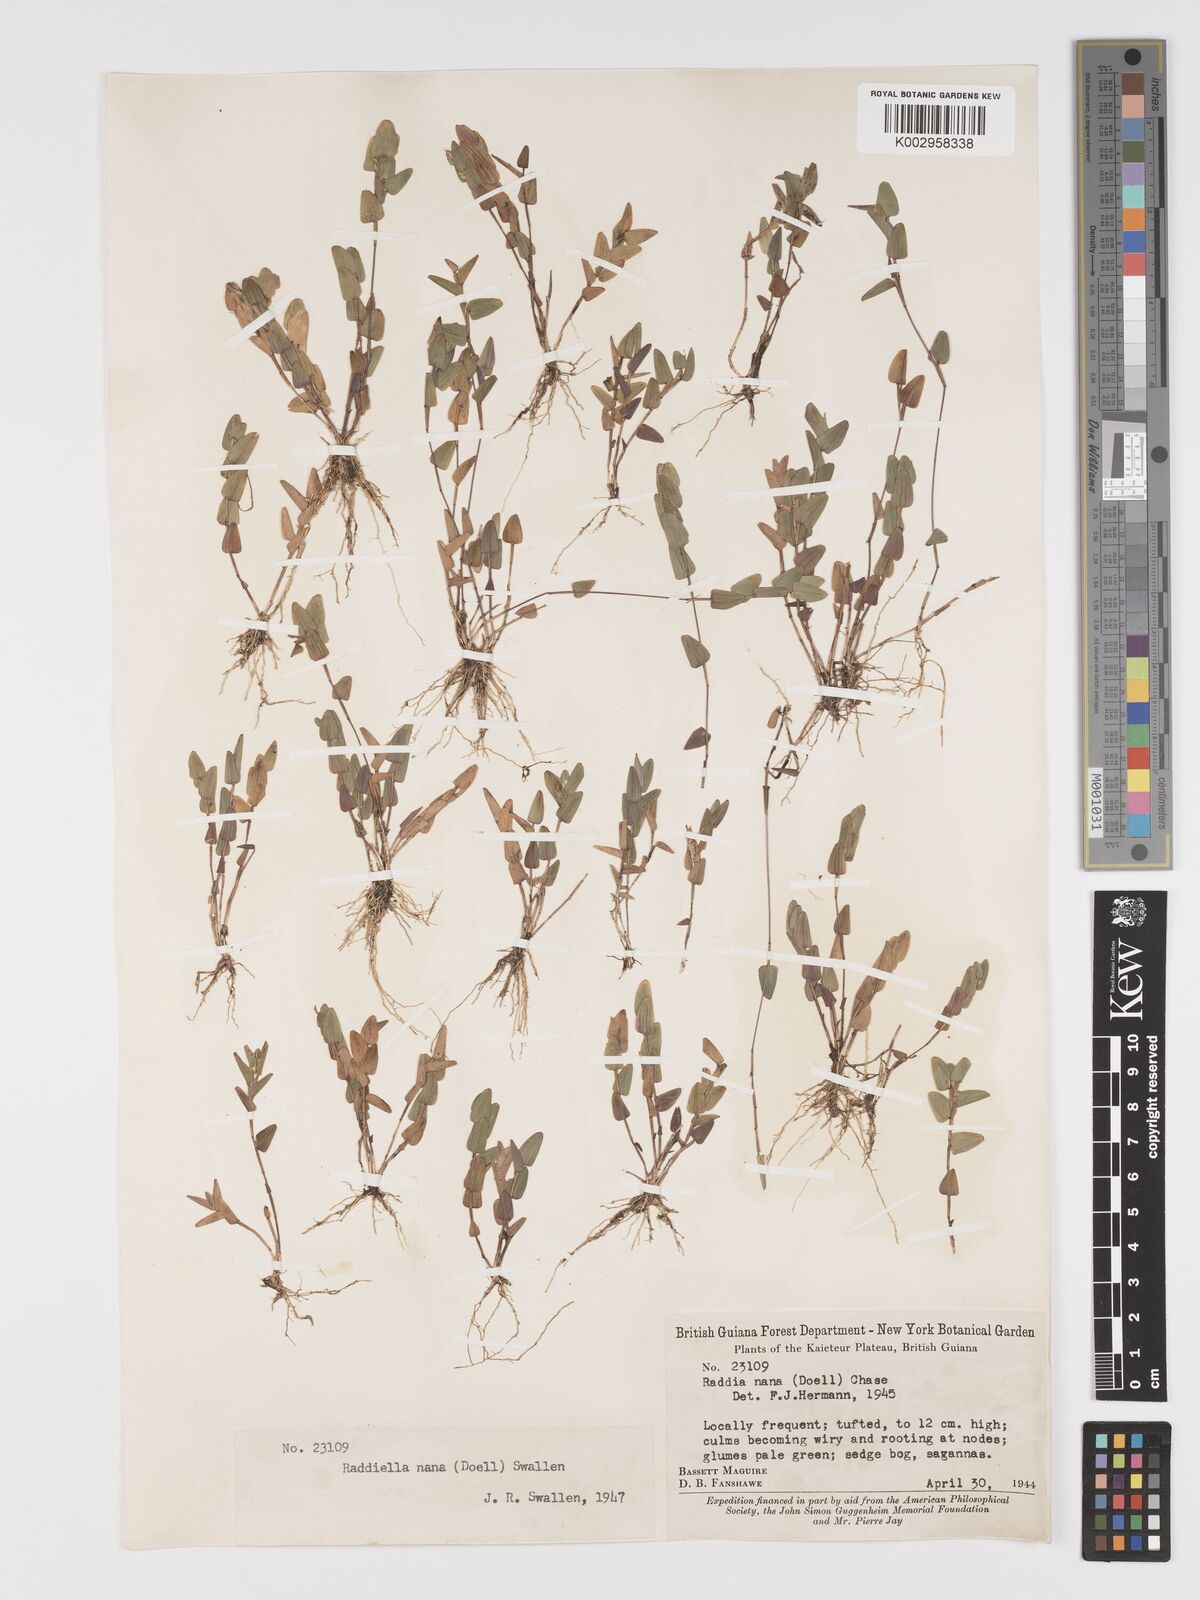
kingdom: Plantae
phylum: Tracheophyta
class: Liliopsida
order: Poales
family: Poaceae
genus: Raddiella
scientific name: Raddiella esenbeckii
